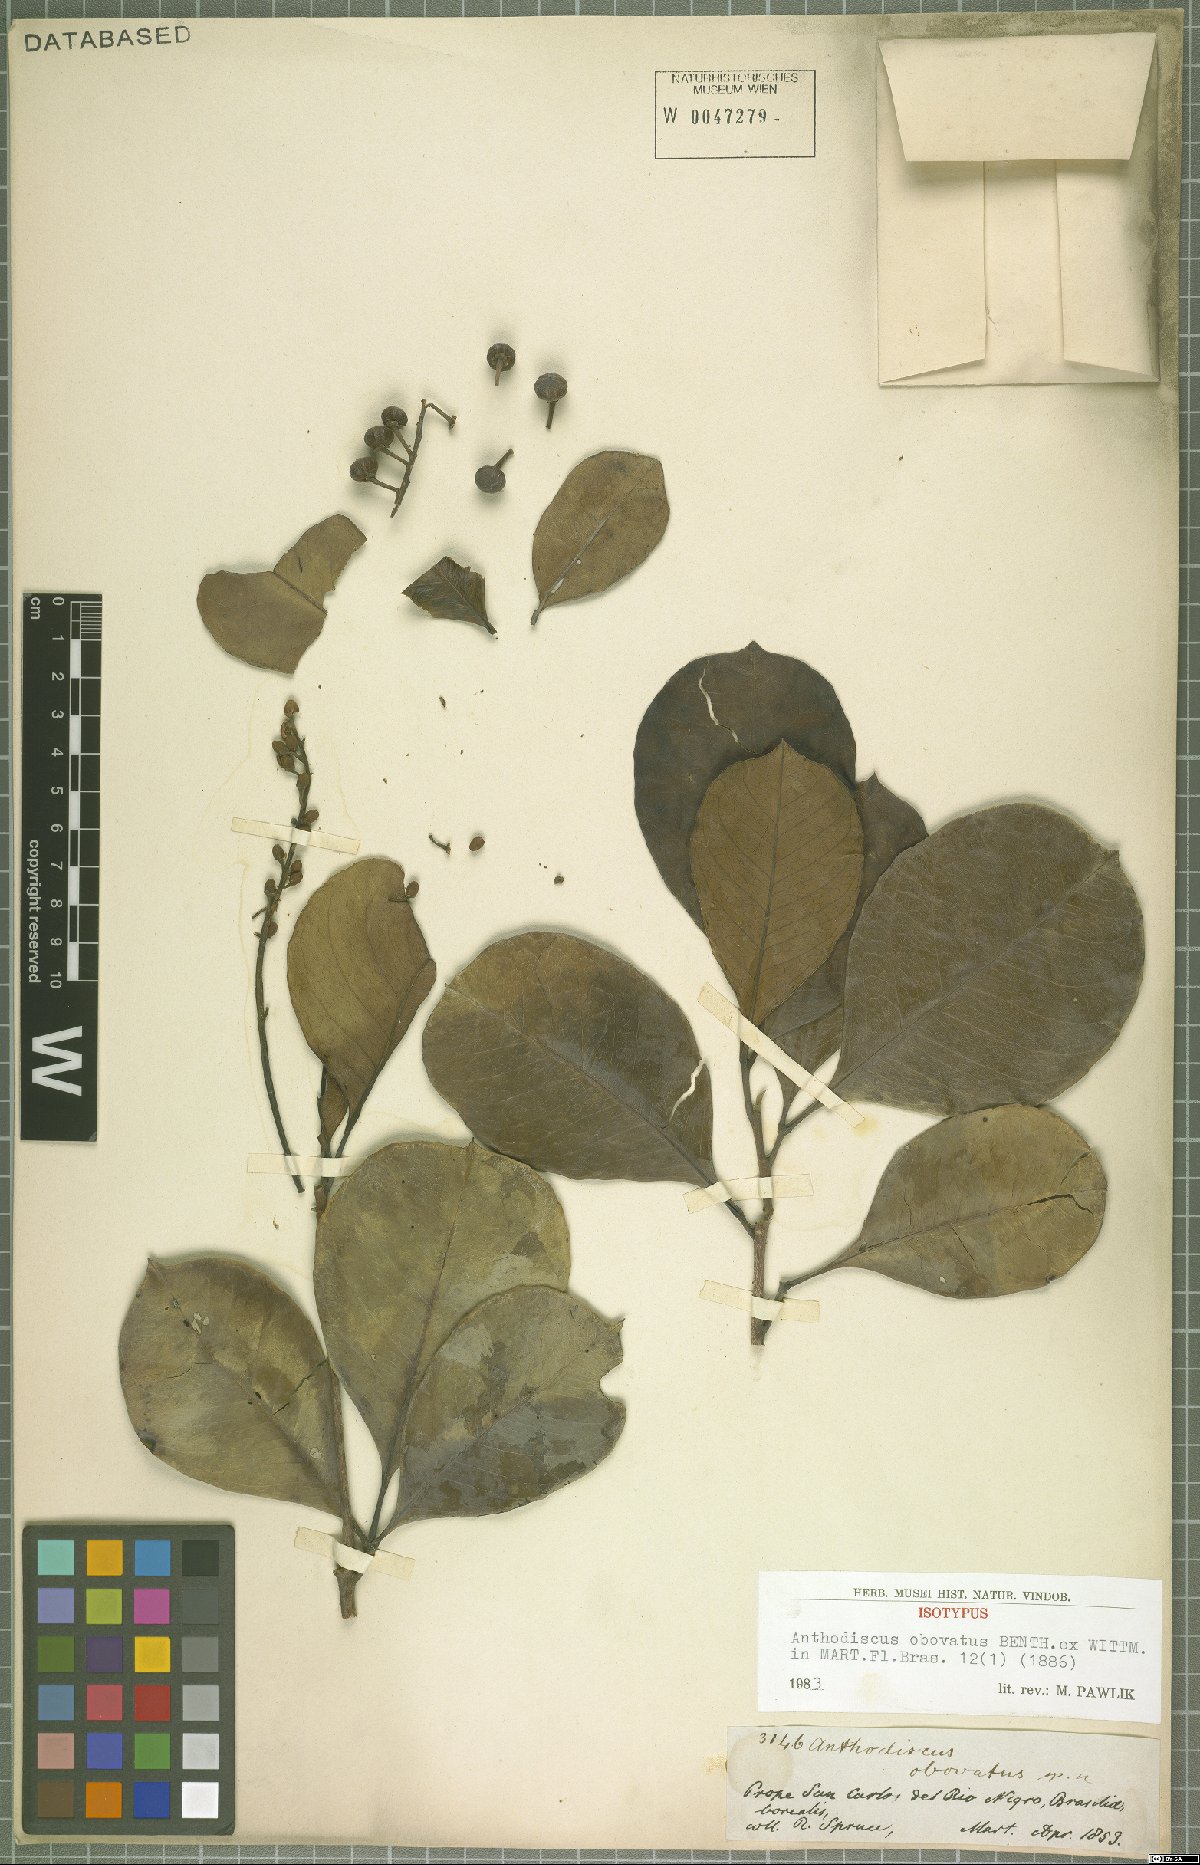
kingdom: Plantae
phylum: Tracheophyta
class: Magnoliopsida
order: Malpighiales
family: Caryocaraceae
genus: Anthodiscus
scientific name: Anthodiscus obovatus
